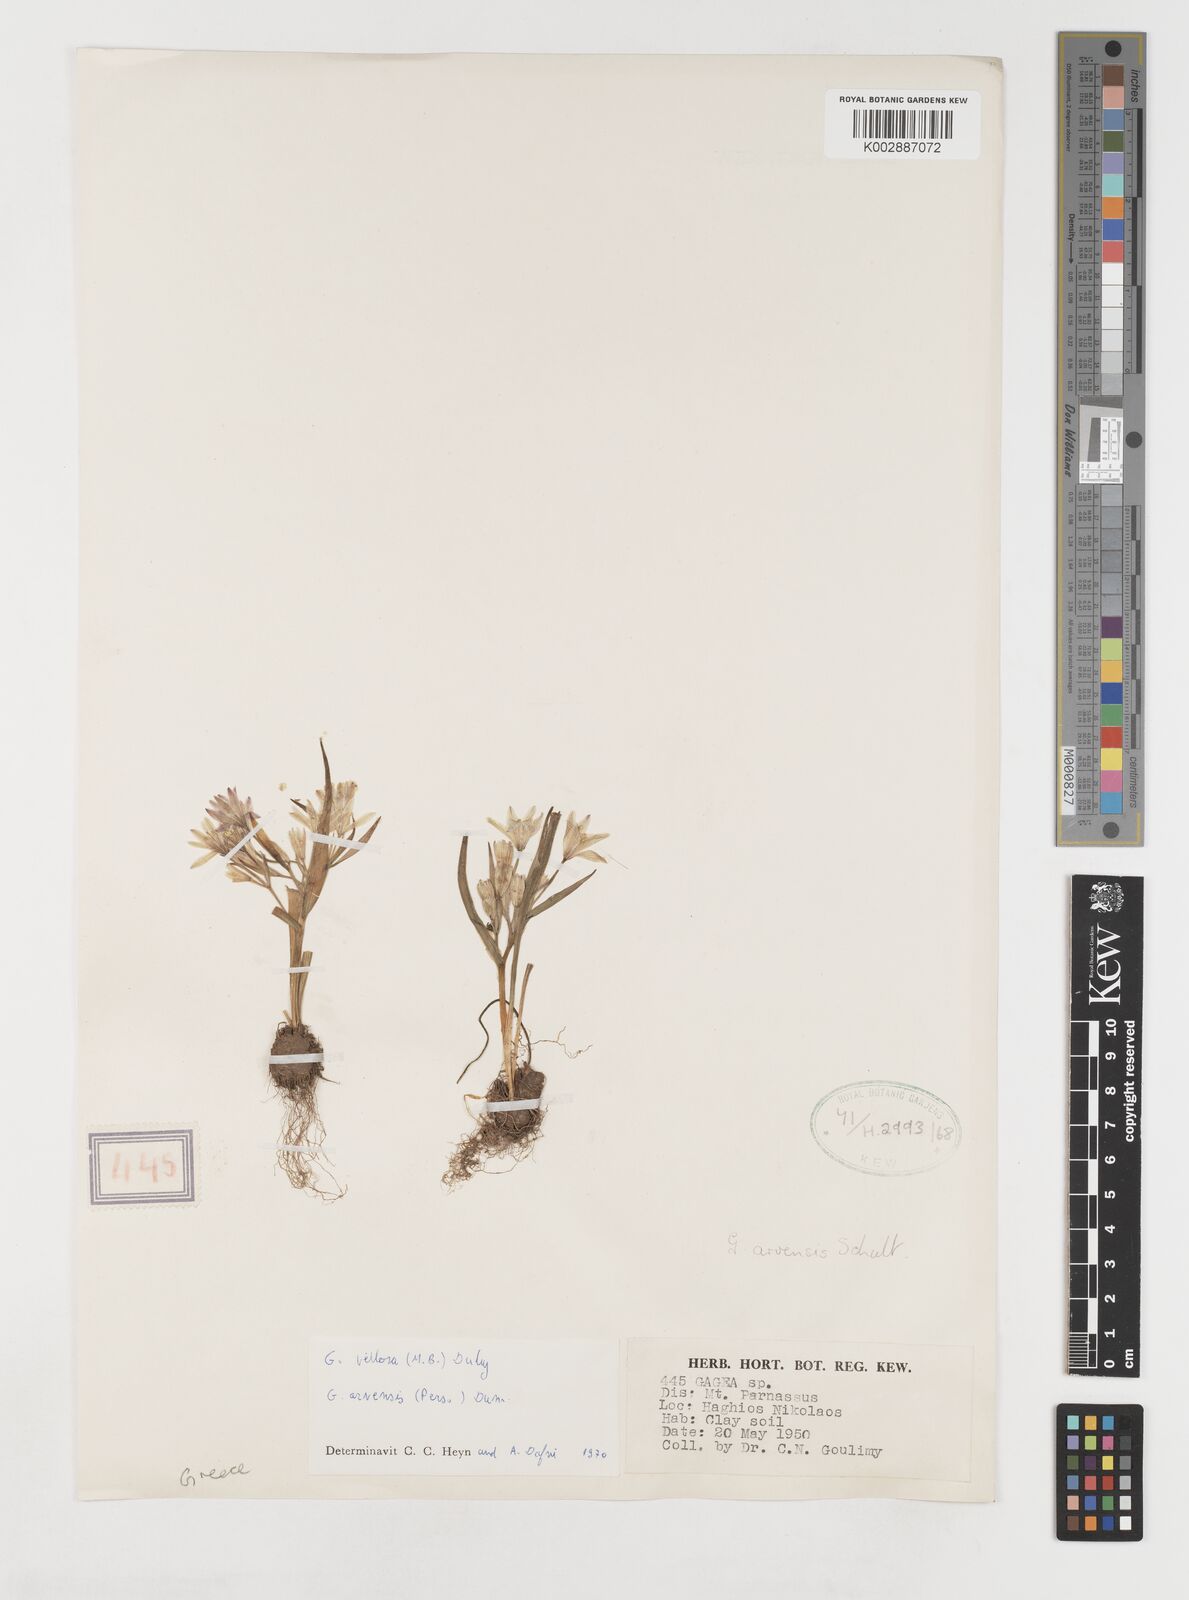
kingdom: Plantae
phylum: Tracheophyta
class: Liliopsida
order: Liliales
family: Liliaceae
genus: Gagea
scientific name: Gagea minima
